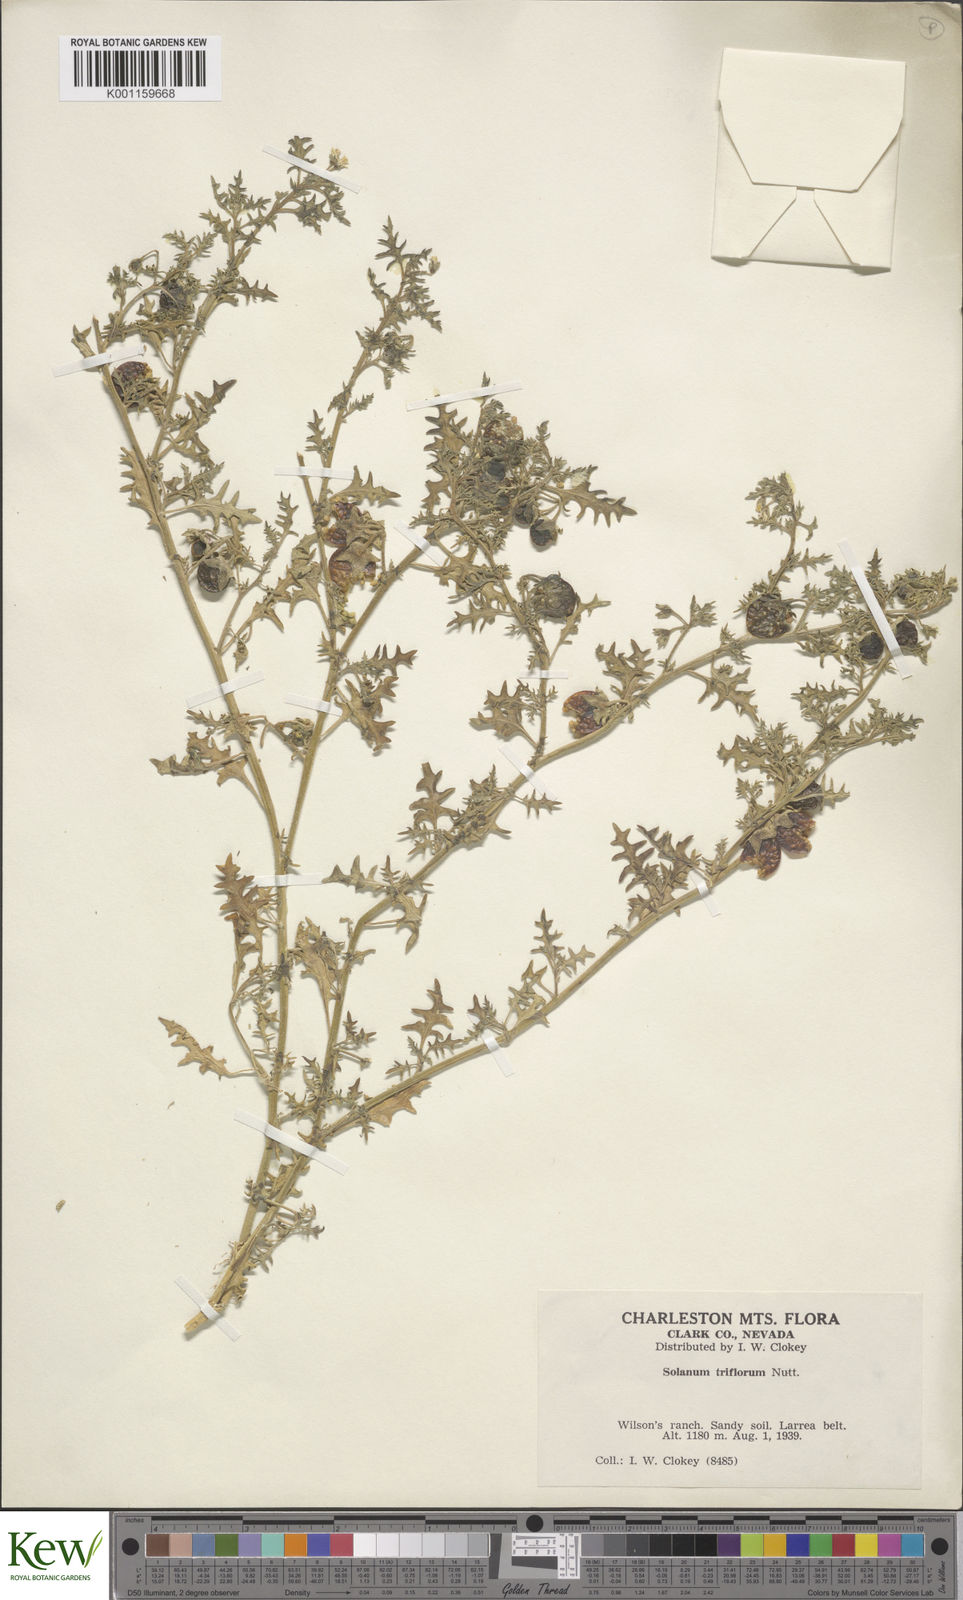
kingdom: Plantae
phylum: Tracheophyta
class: Magnoliopsida
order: Solanales
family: Solanaceae
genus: Solanum
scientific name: Solanum triflorum
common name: Small nightshade
